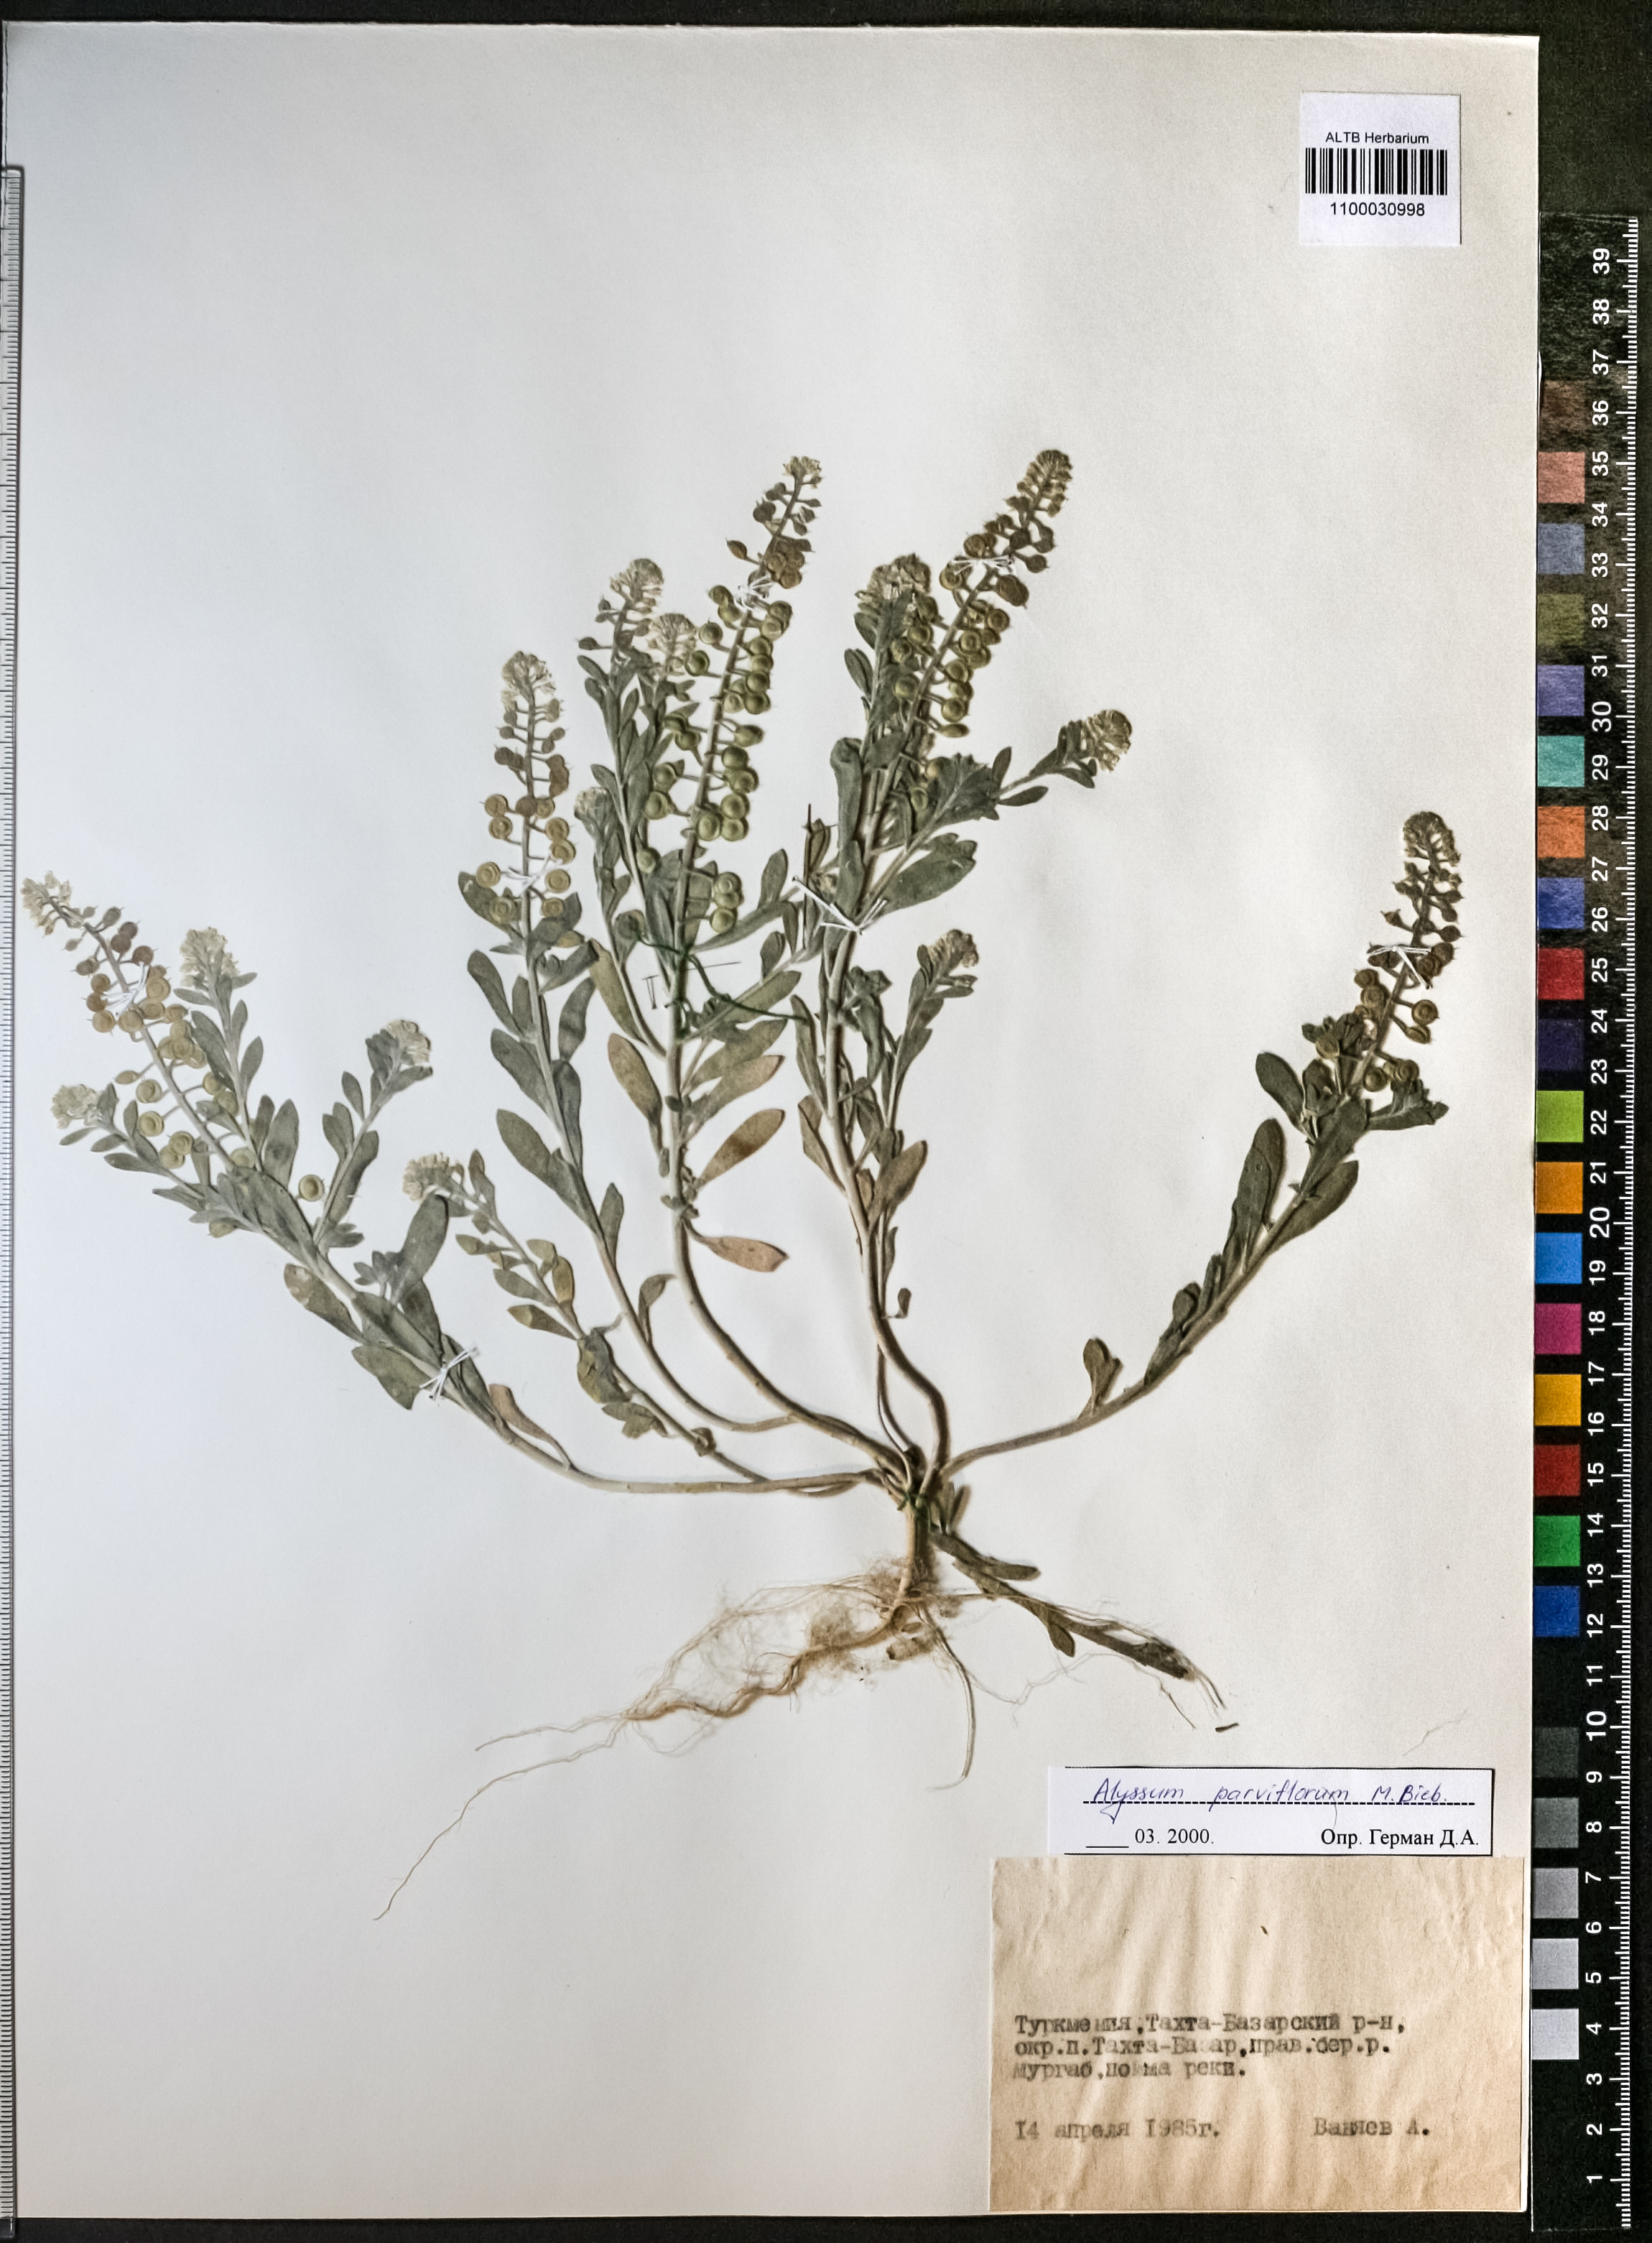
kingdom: Plantae
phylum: Tracheophyta
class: Magnoliopsida
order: Brassicales
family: Brassicaceae
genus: Alyssum
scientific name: Alyssum simplex
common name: Alyssum
